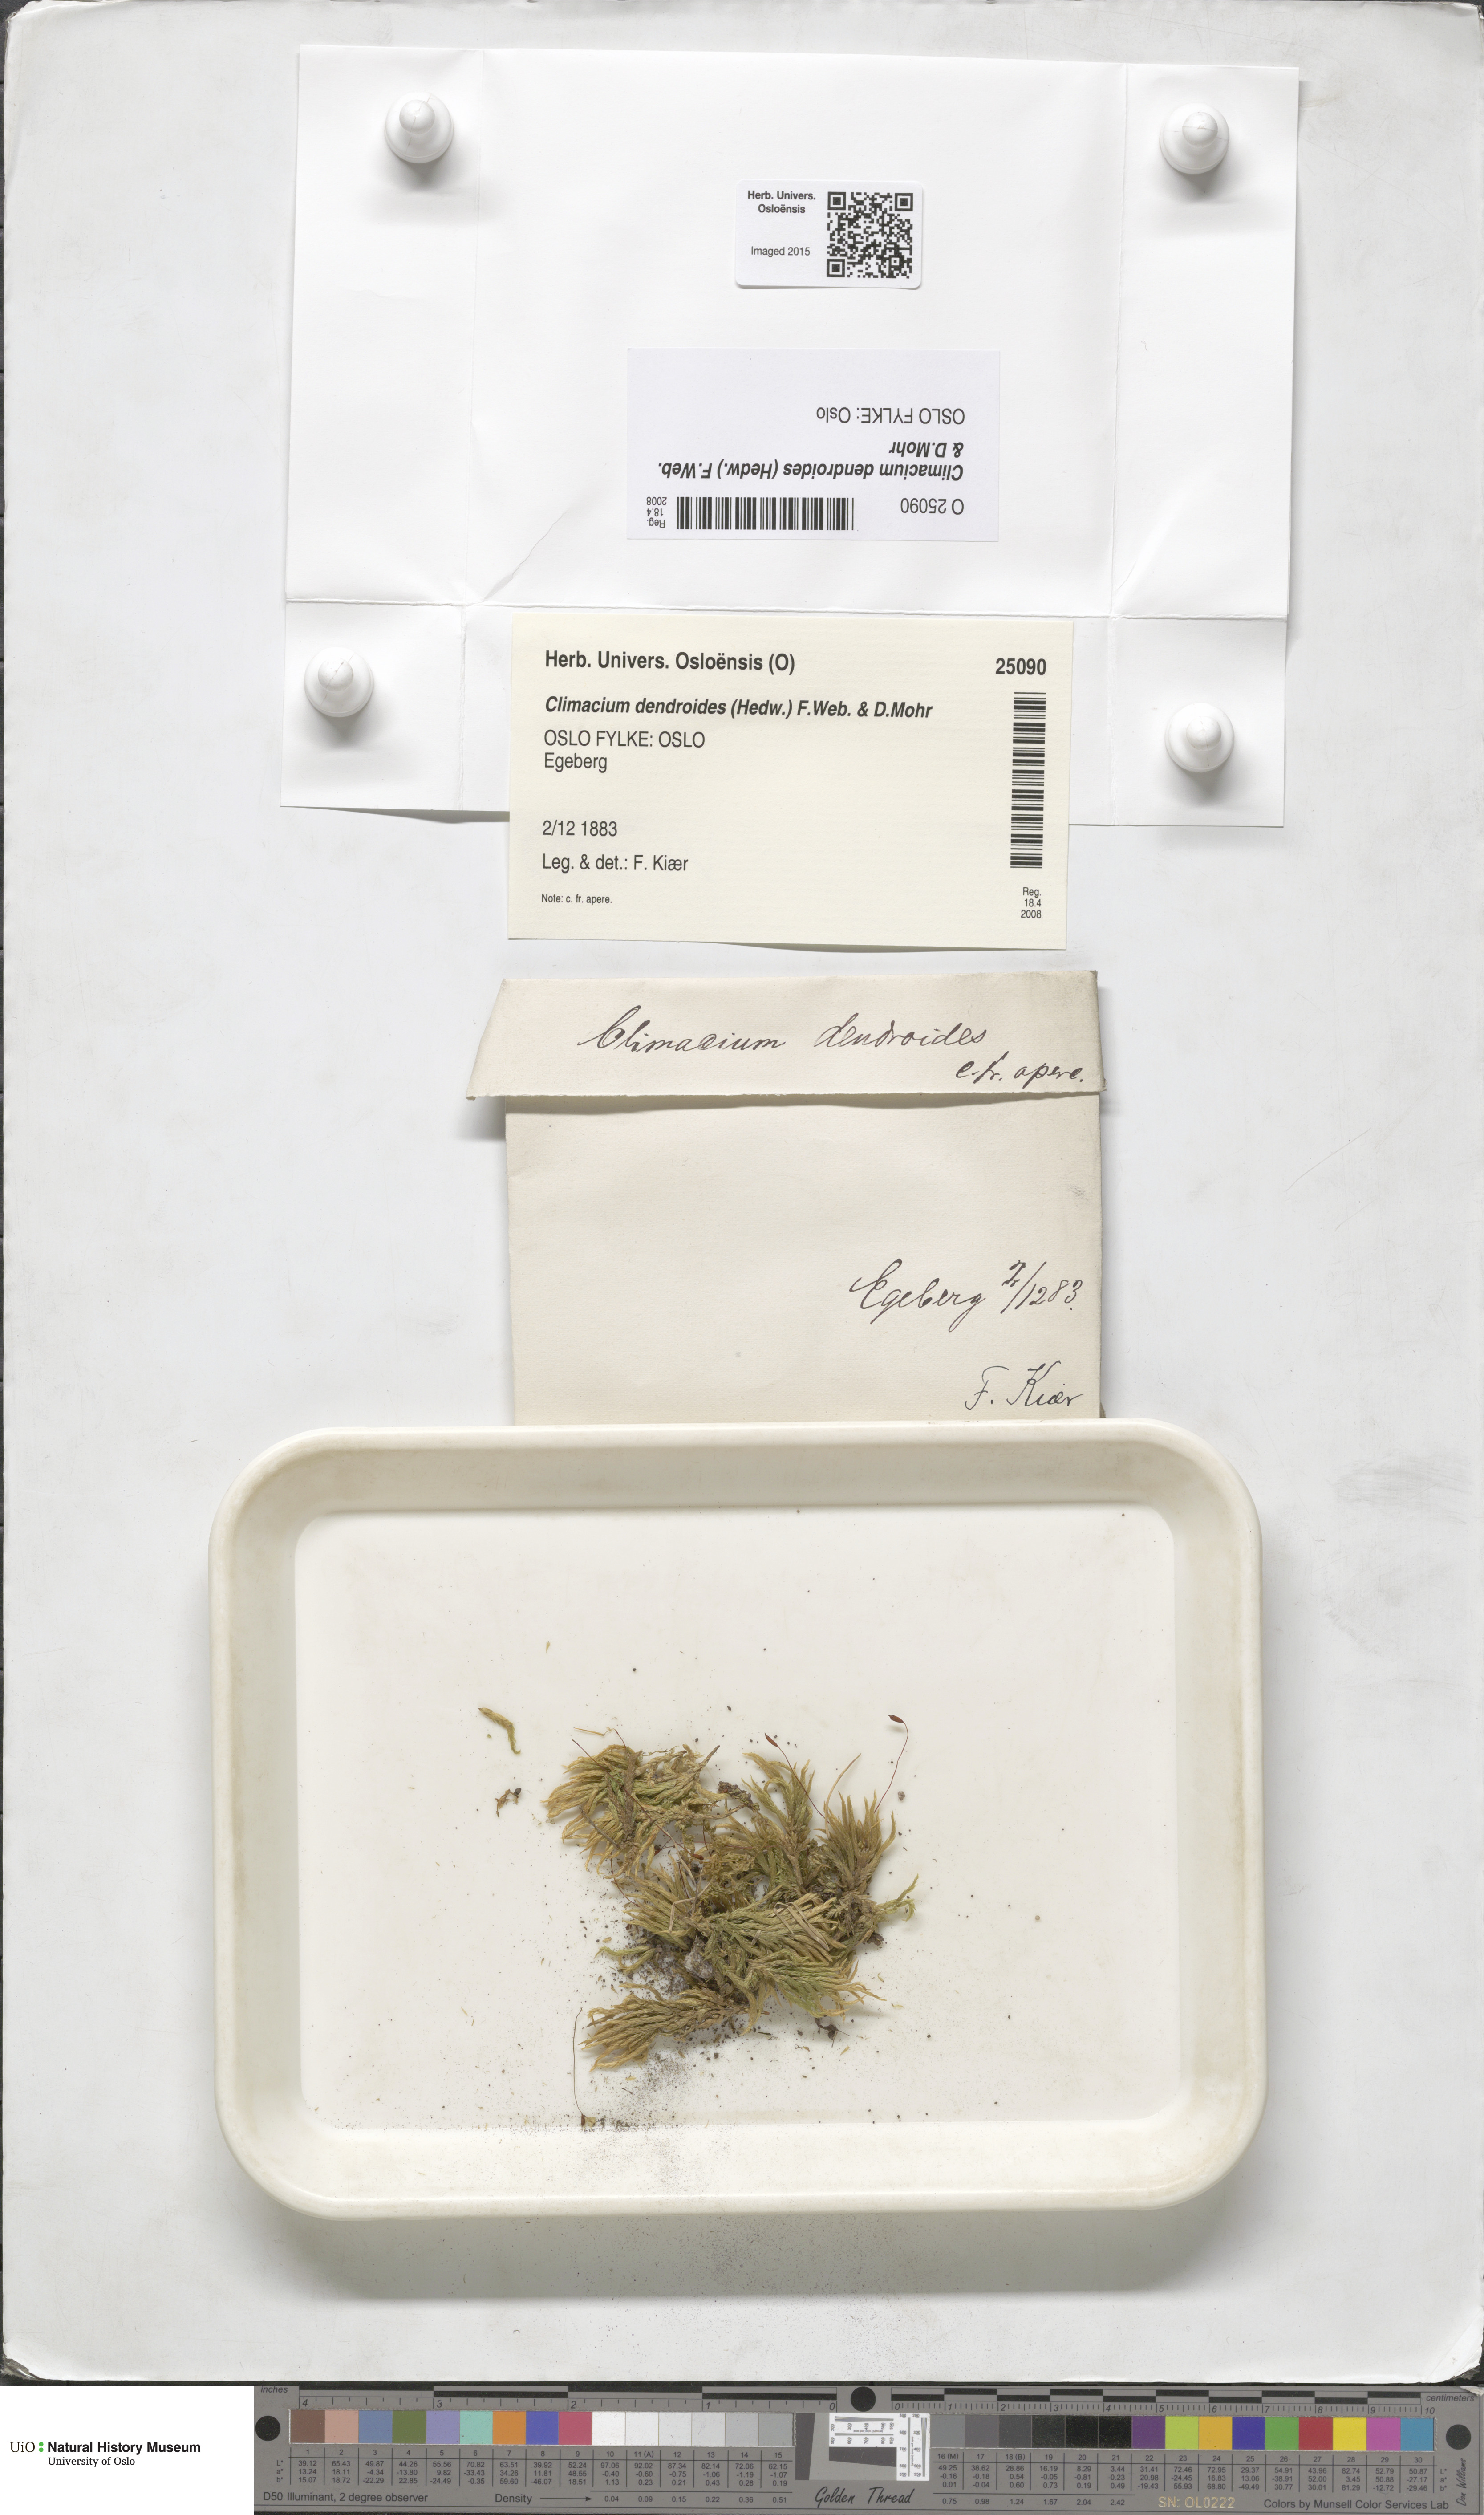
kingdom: Plantae
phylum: Bryophyta
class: Bryopsida
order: Hypnales
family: Climaciaceae
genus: Climacium
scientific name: Climacium dendroides
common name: Northern tree moss
